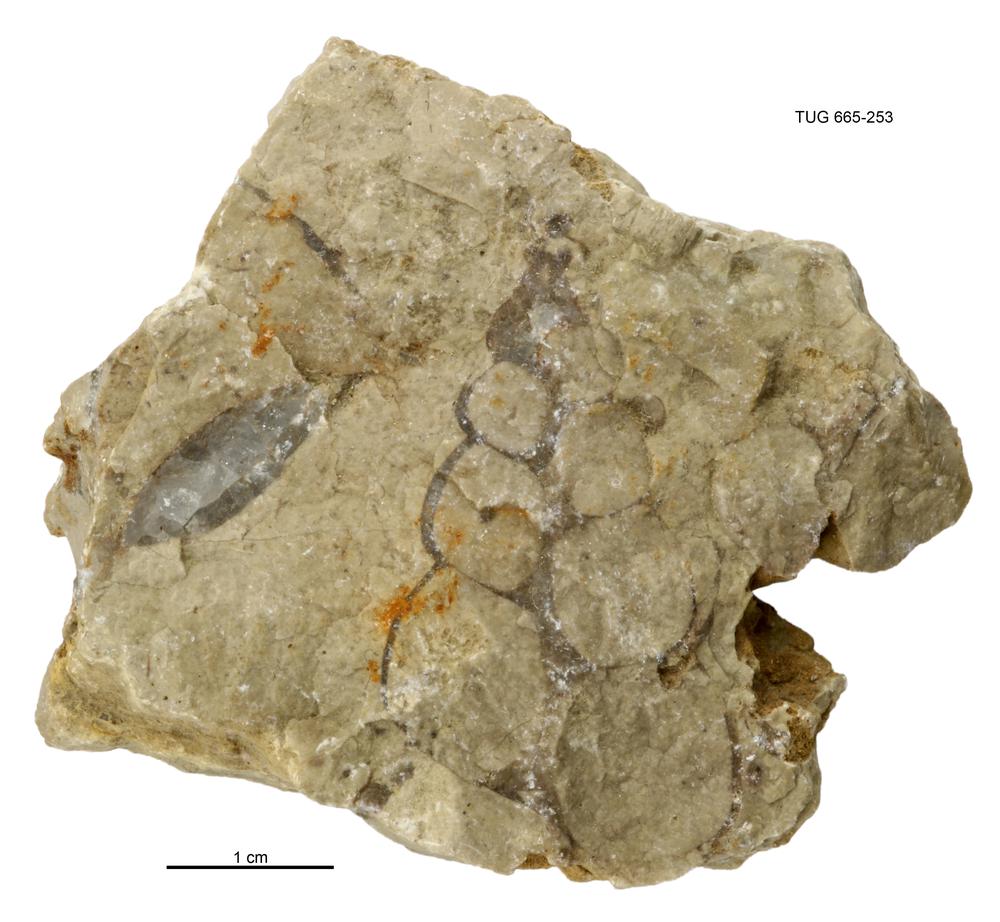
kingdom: Animalia
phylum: Mollusca
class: Gastropoda
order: Pleurotomariida
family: Murchisoniidae
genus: Murchisonia
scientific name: Murchisonia insignis
